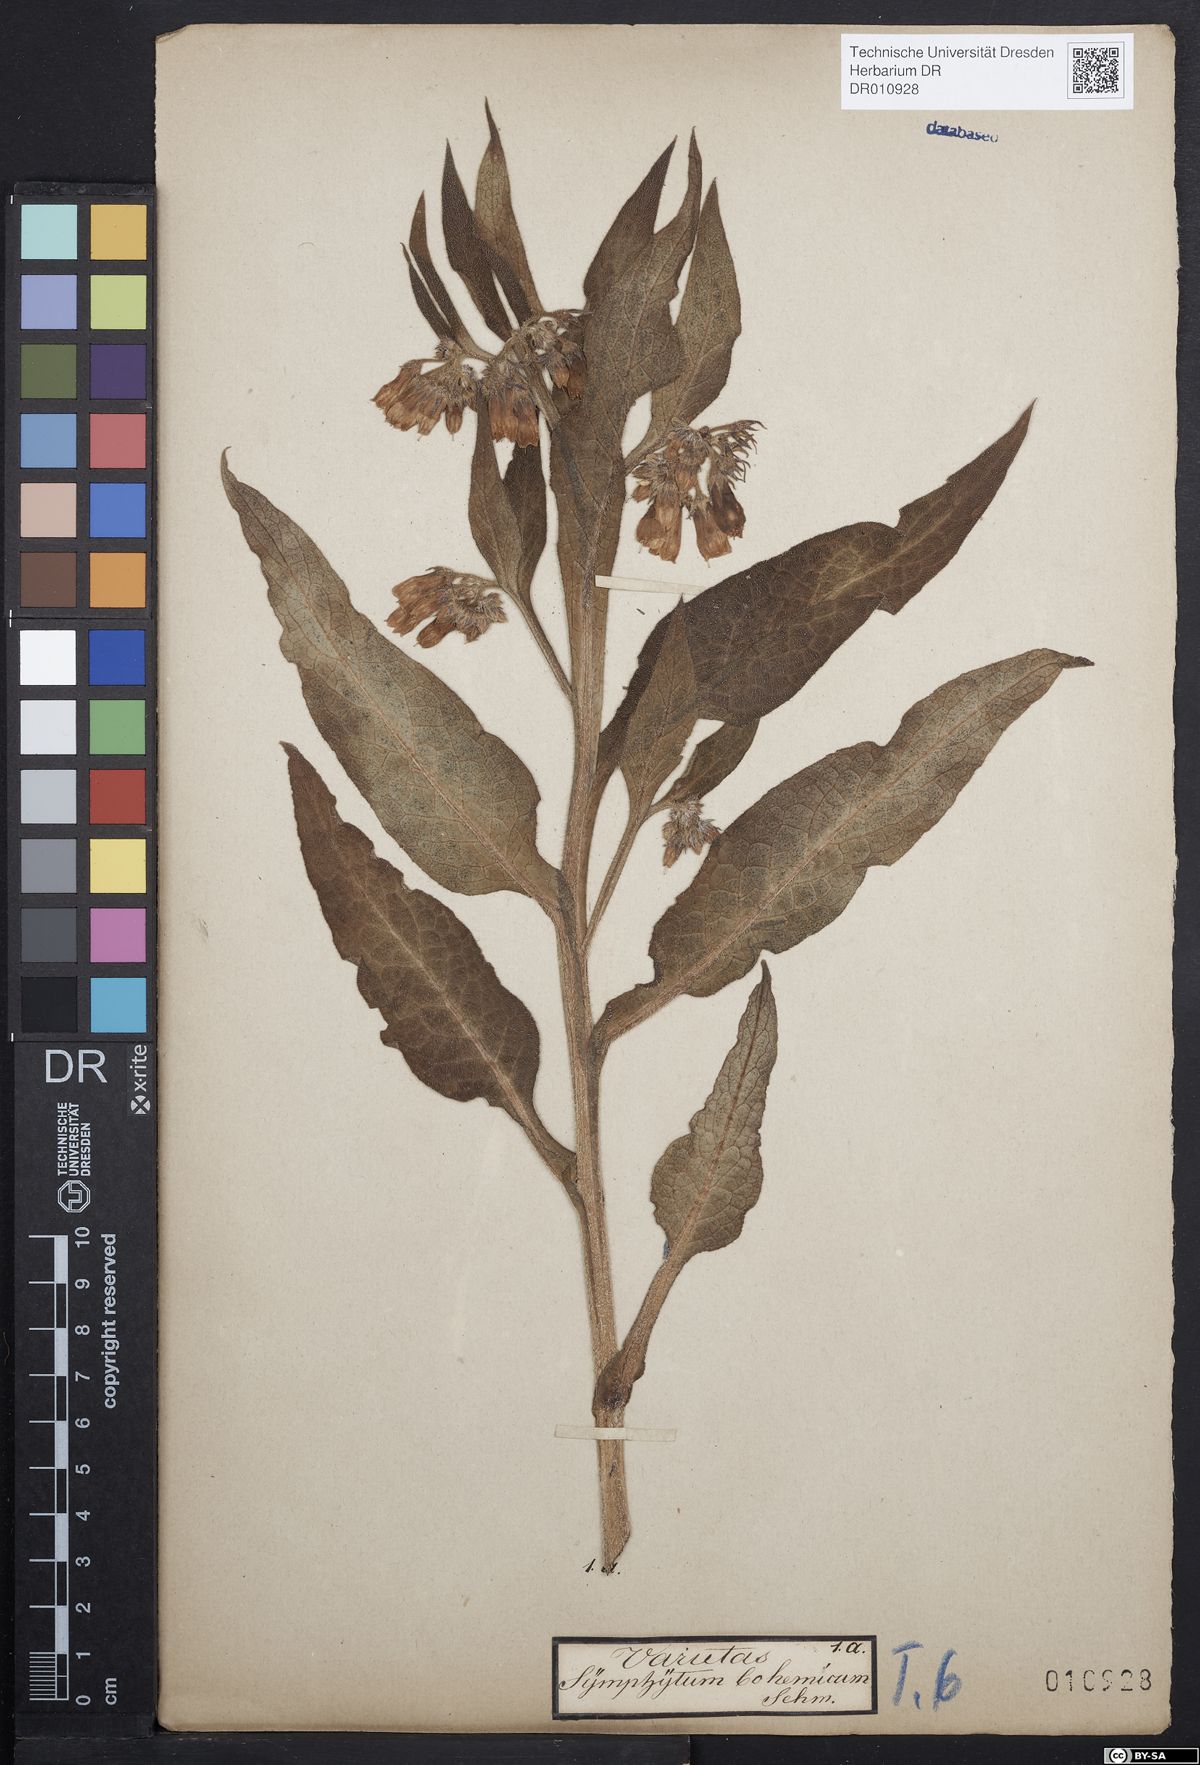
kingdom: Plantae
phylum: Tracheophyta
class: Magnoliopsida
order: Boraginales
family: Boraginaceae
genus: Symphytum
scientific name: Symphytum officinale
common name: Common comfrey
